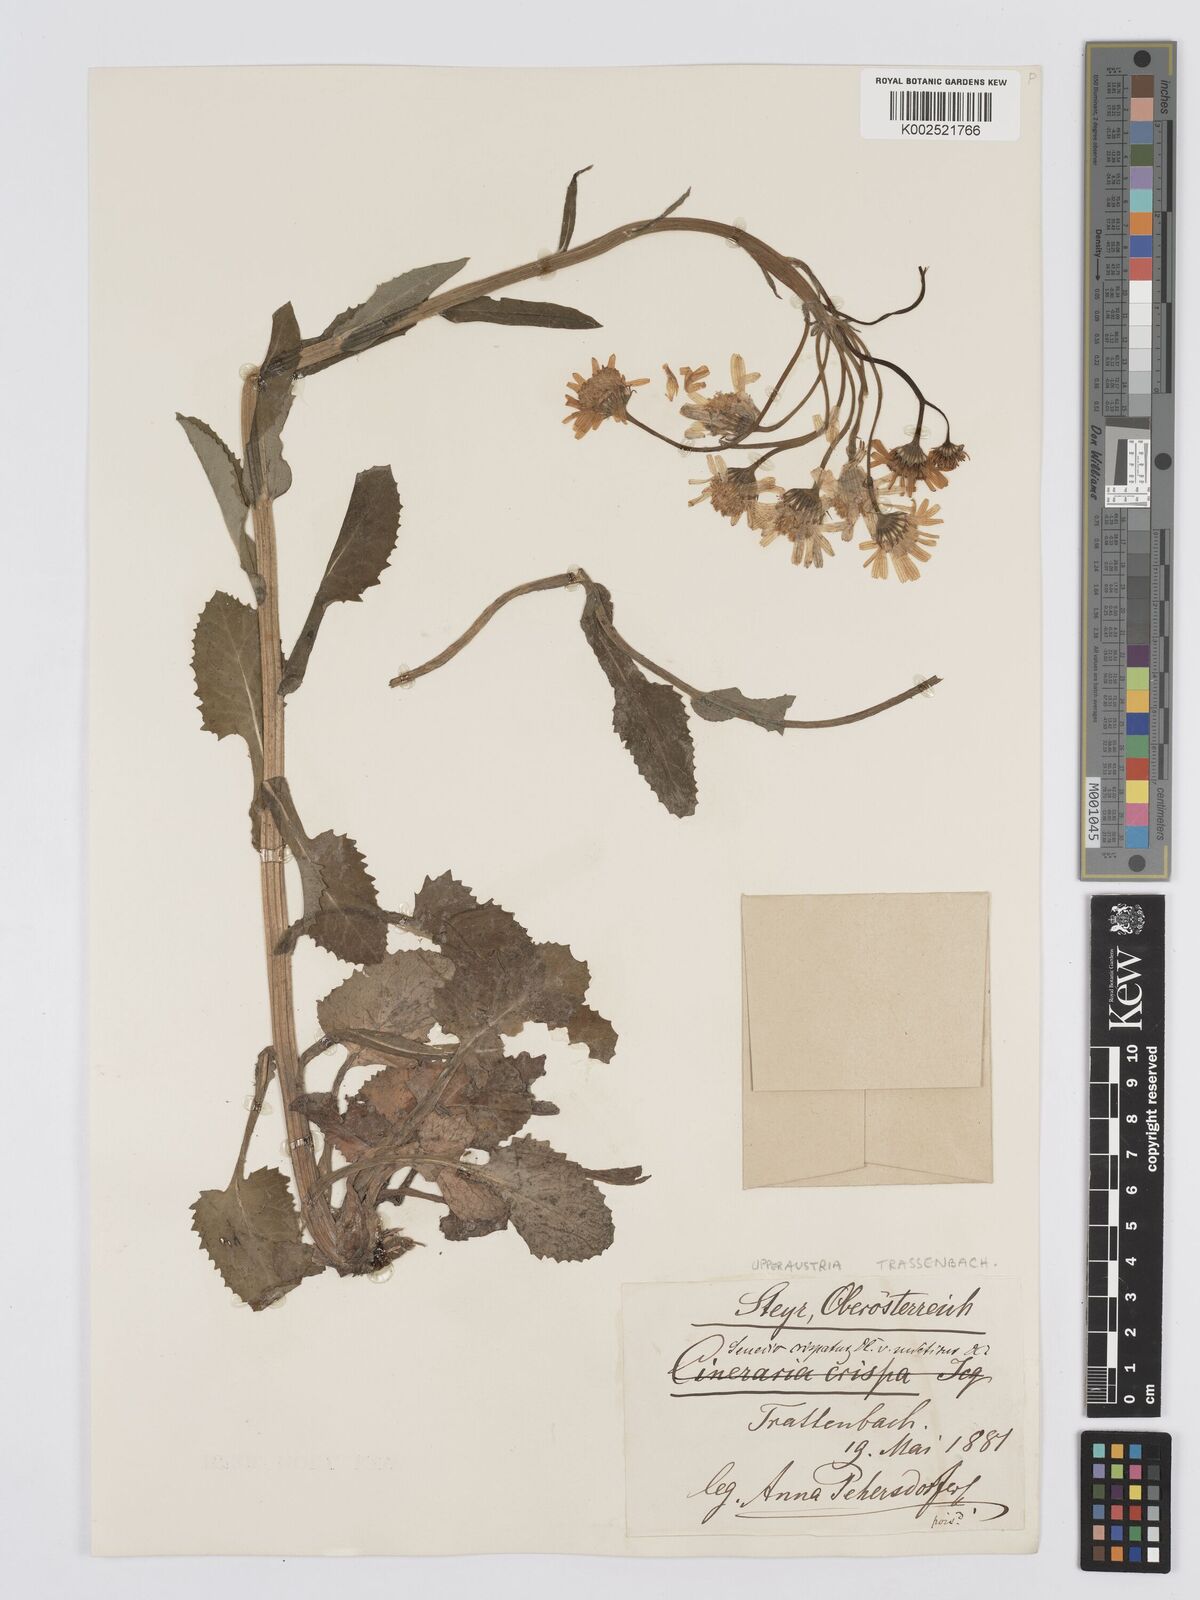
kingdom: Plantae
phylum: Tracheophyta
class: Magnoliopsida
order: Asterales
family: Asteraceae
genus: Tephroseris
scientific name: Tephroseris crispa
